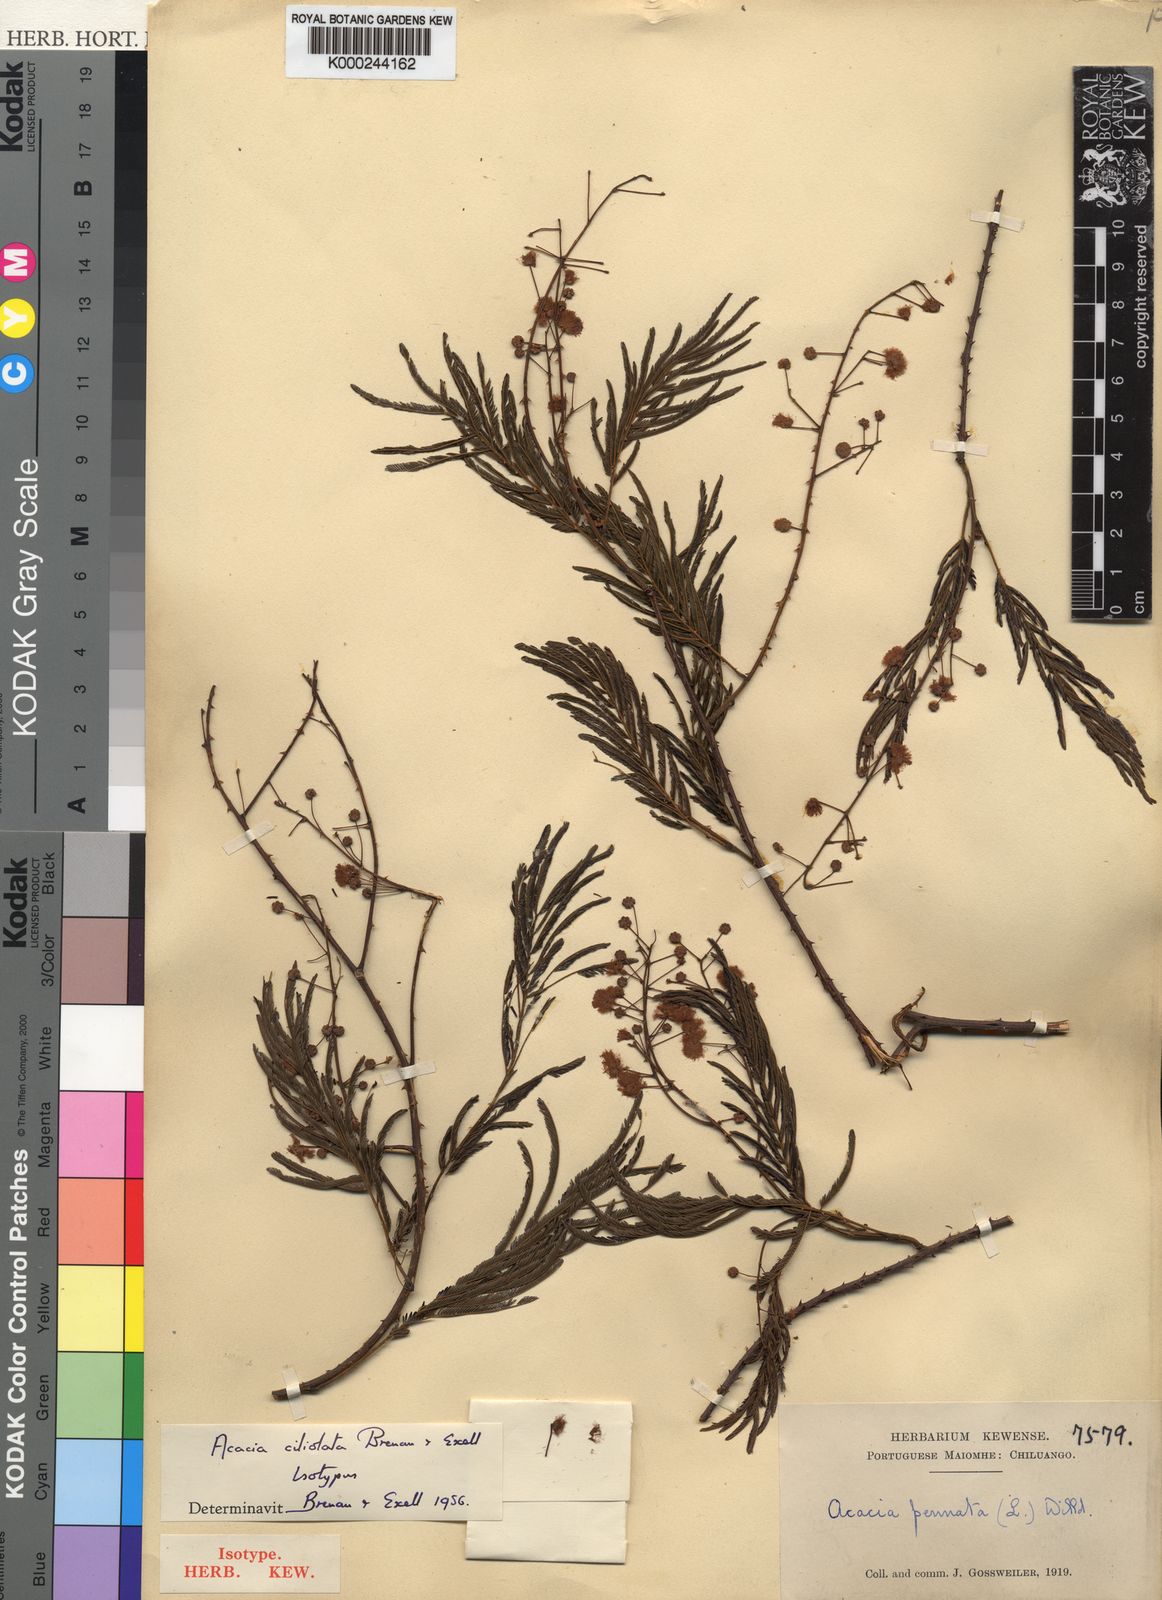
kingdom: Plantae
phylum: Tracheophyta
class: Magnoliopsida
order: Fabales
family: Fabaceae
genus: Acacia
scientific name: Acacia
